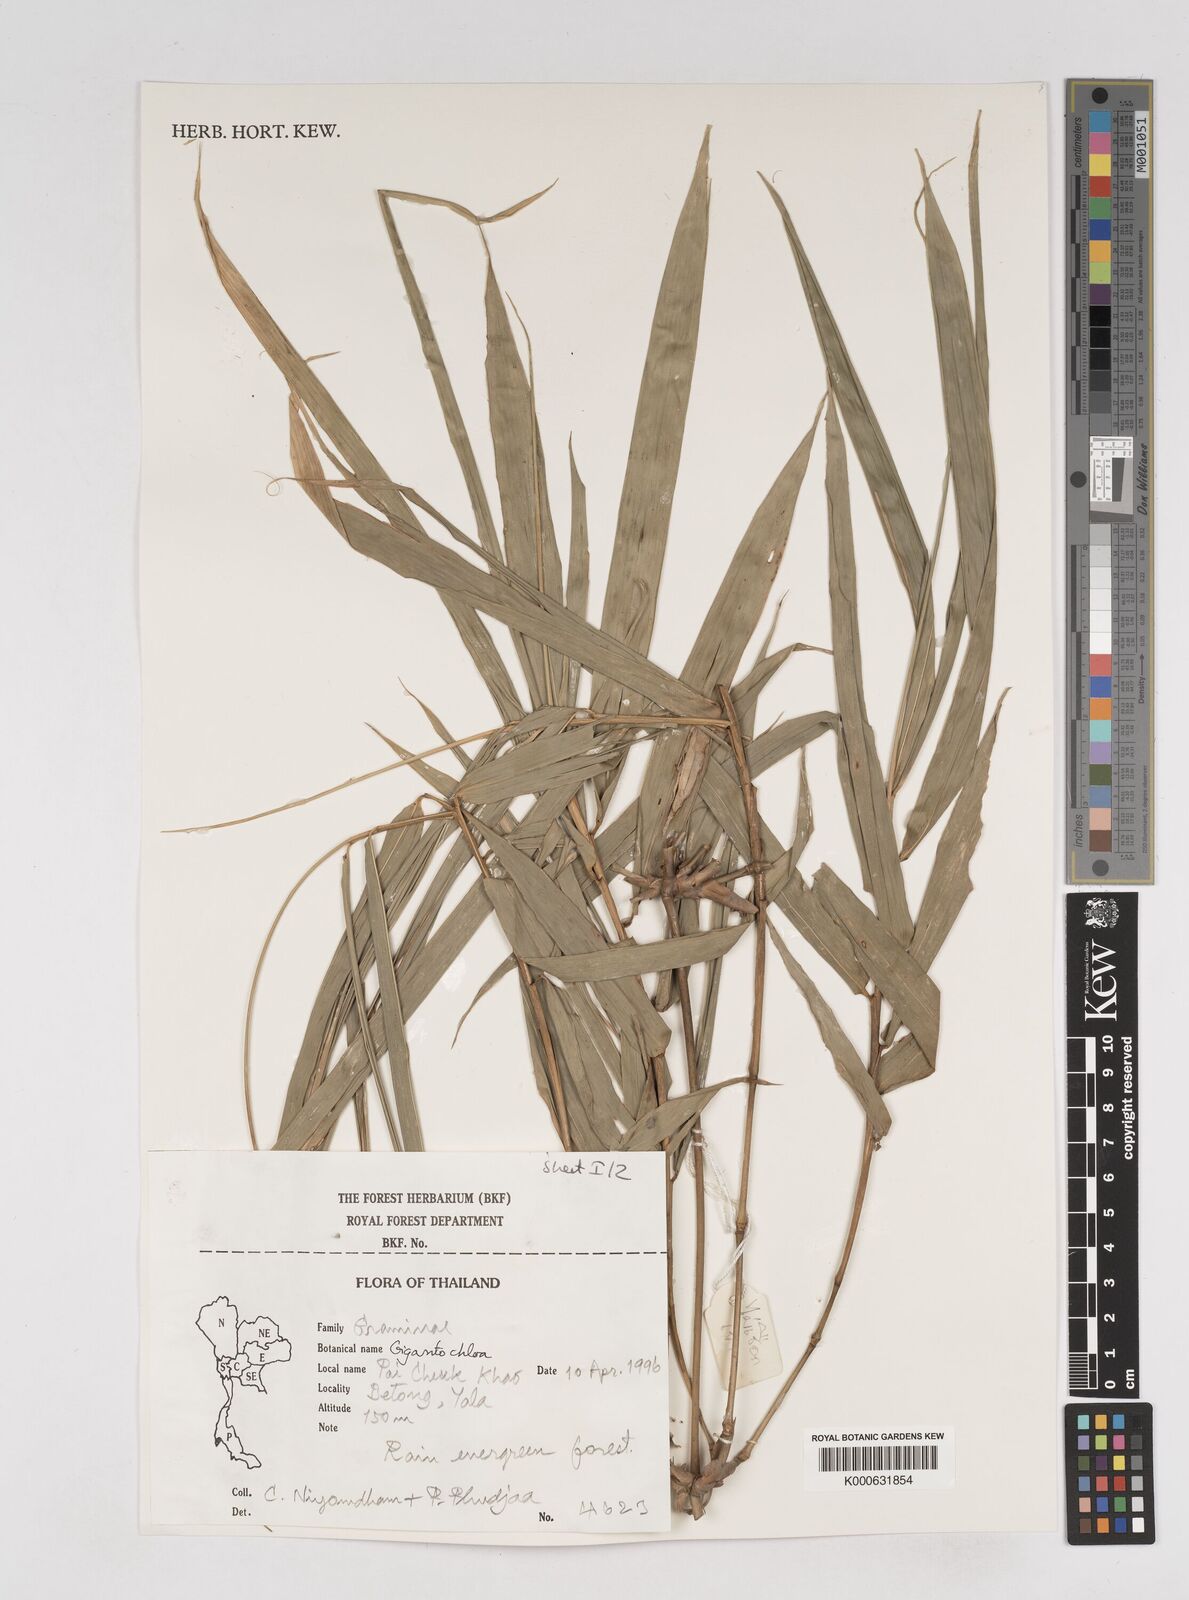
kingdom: Plantae
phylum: Tracheophyta
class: Liliopsida
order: Poales
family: Poaceae
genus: Gigantochloa
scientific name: Gigantochloa
